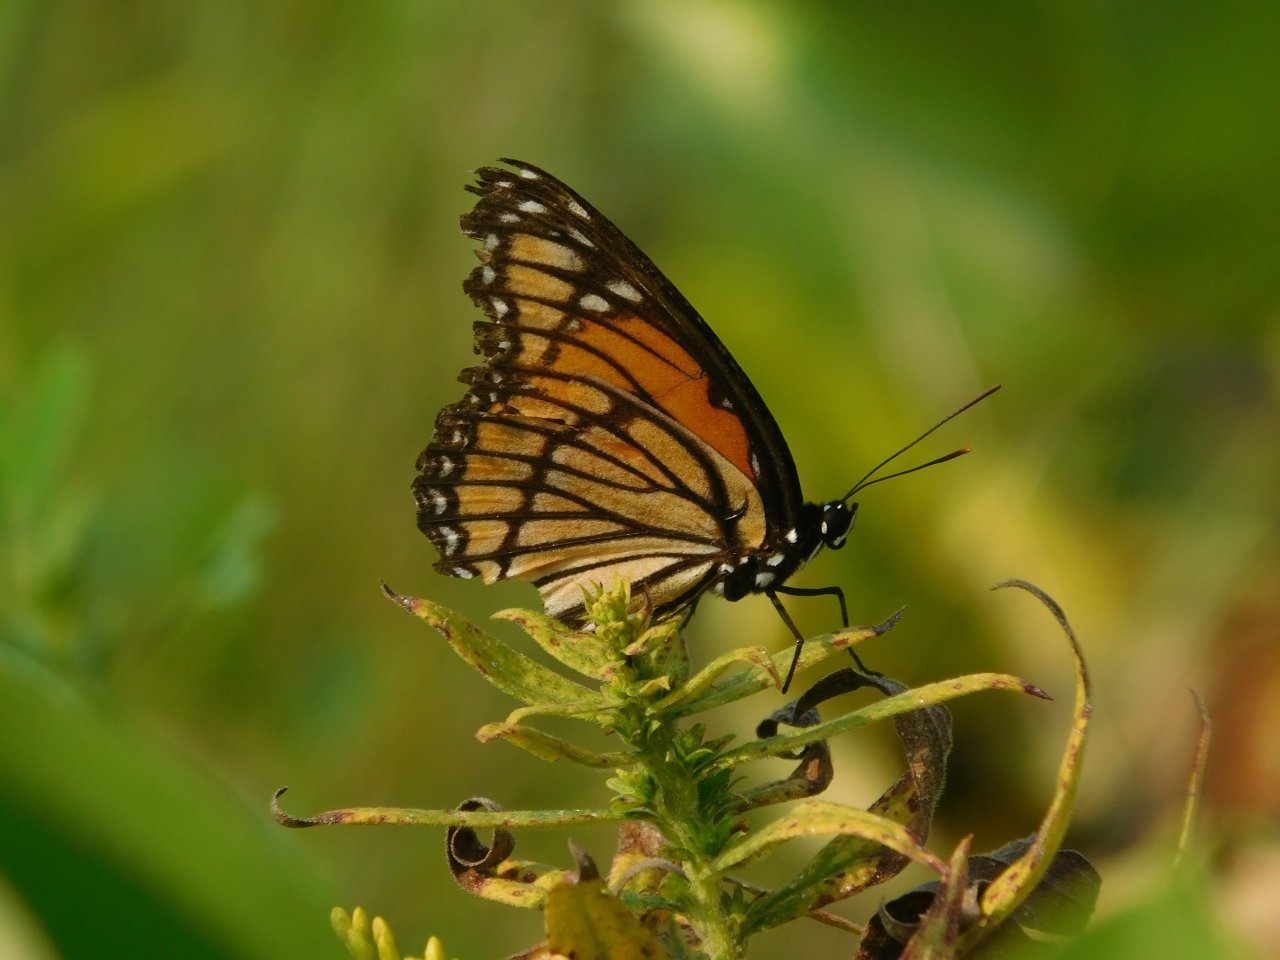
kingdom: Animalia
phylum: Arthropoda
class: Insecta
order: Lepidoptera
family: Nymphalidae
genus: Limenitis
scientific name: Limenitis archippus
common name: Viceroy
